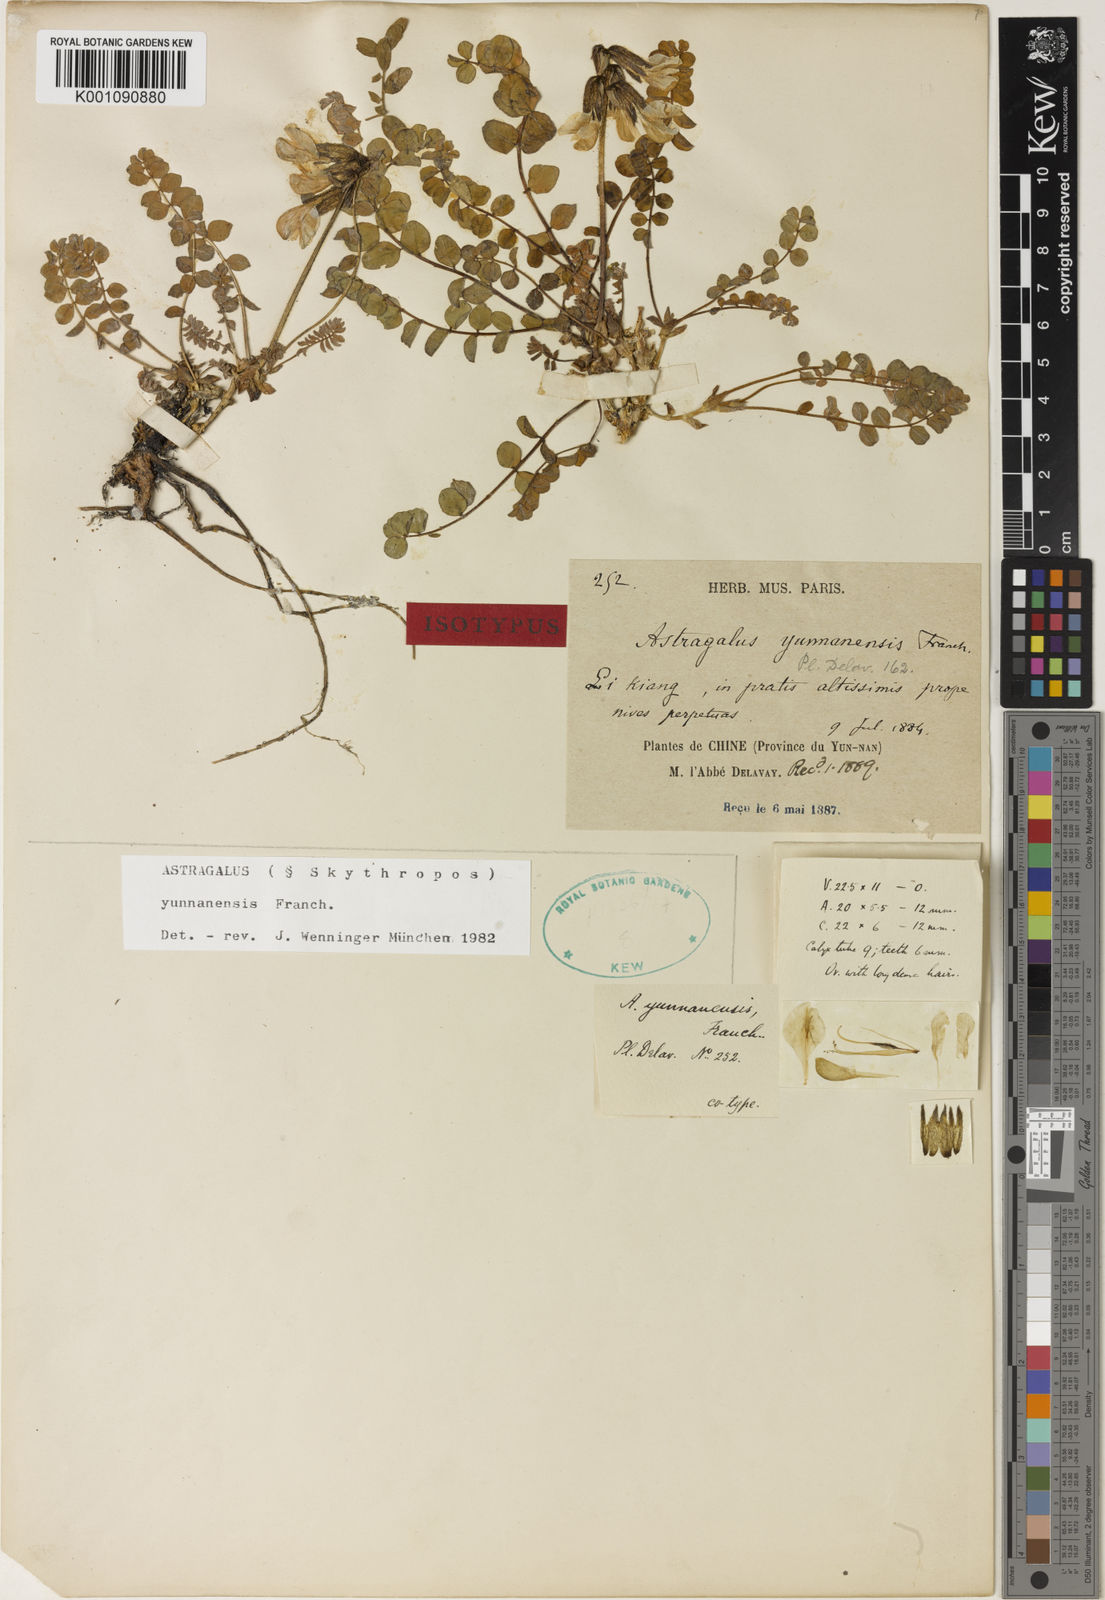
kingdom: Plantae
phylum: Tracheophyta
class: Magnoliopsida
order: Fabales
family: Fabaceae
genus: Astragalus
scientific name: Astragalus
